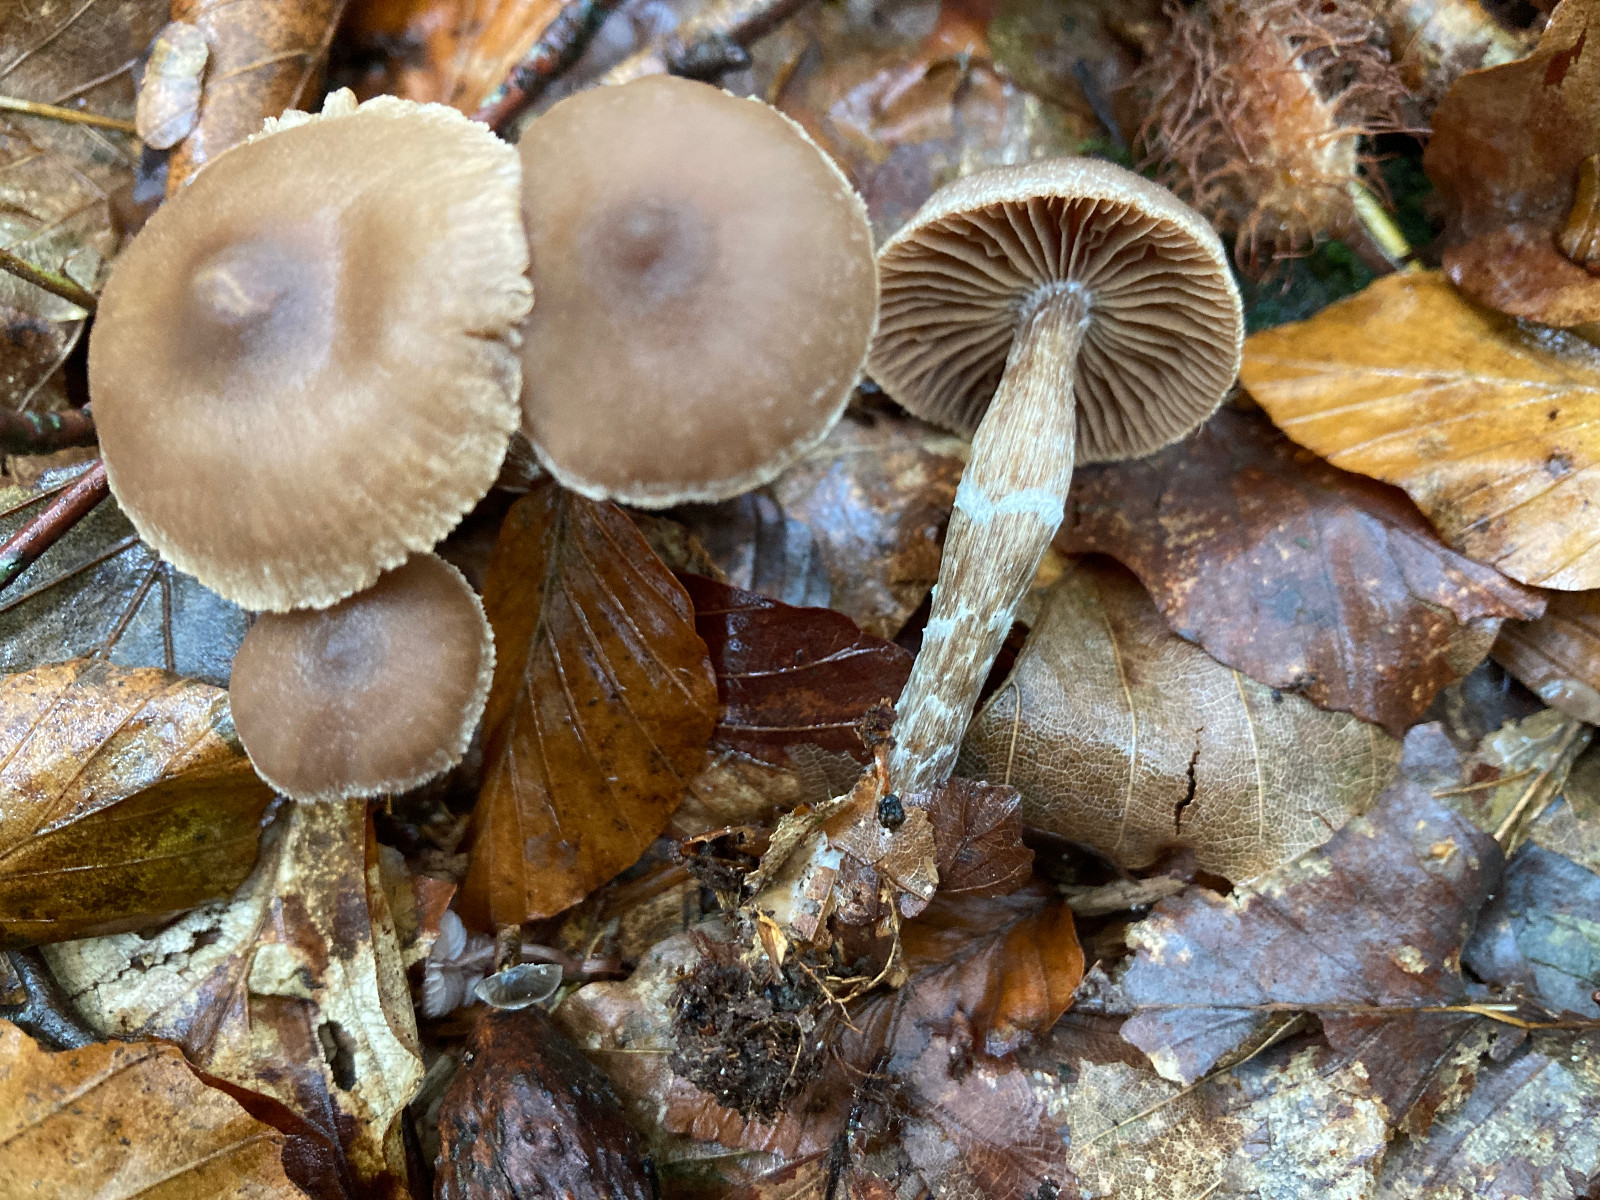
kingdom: Fungi
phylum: Basidiomycota
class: Agaricomycetes
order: Agaricales
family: Cortinariaceae
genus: Cortinarius
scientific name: Cortinarius
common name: pelargonie-slørhat
